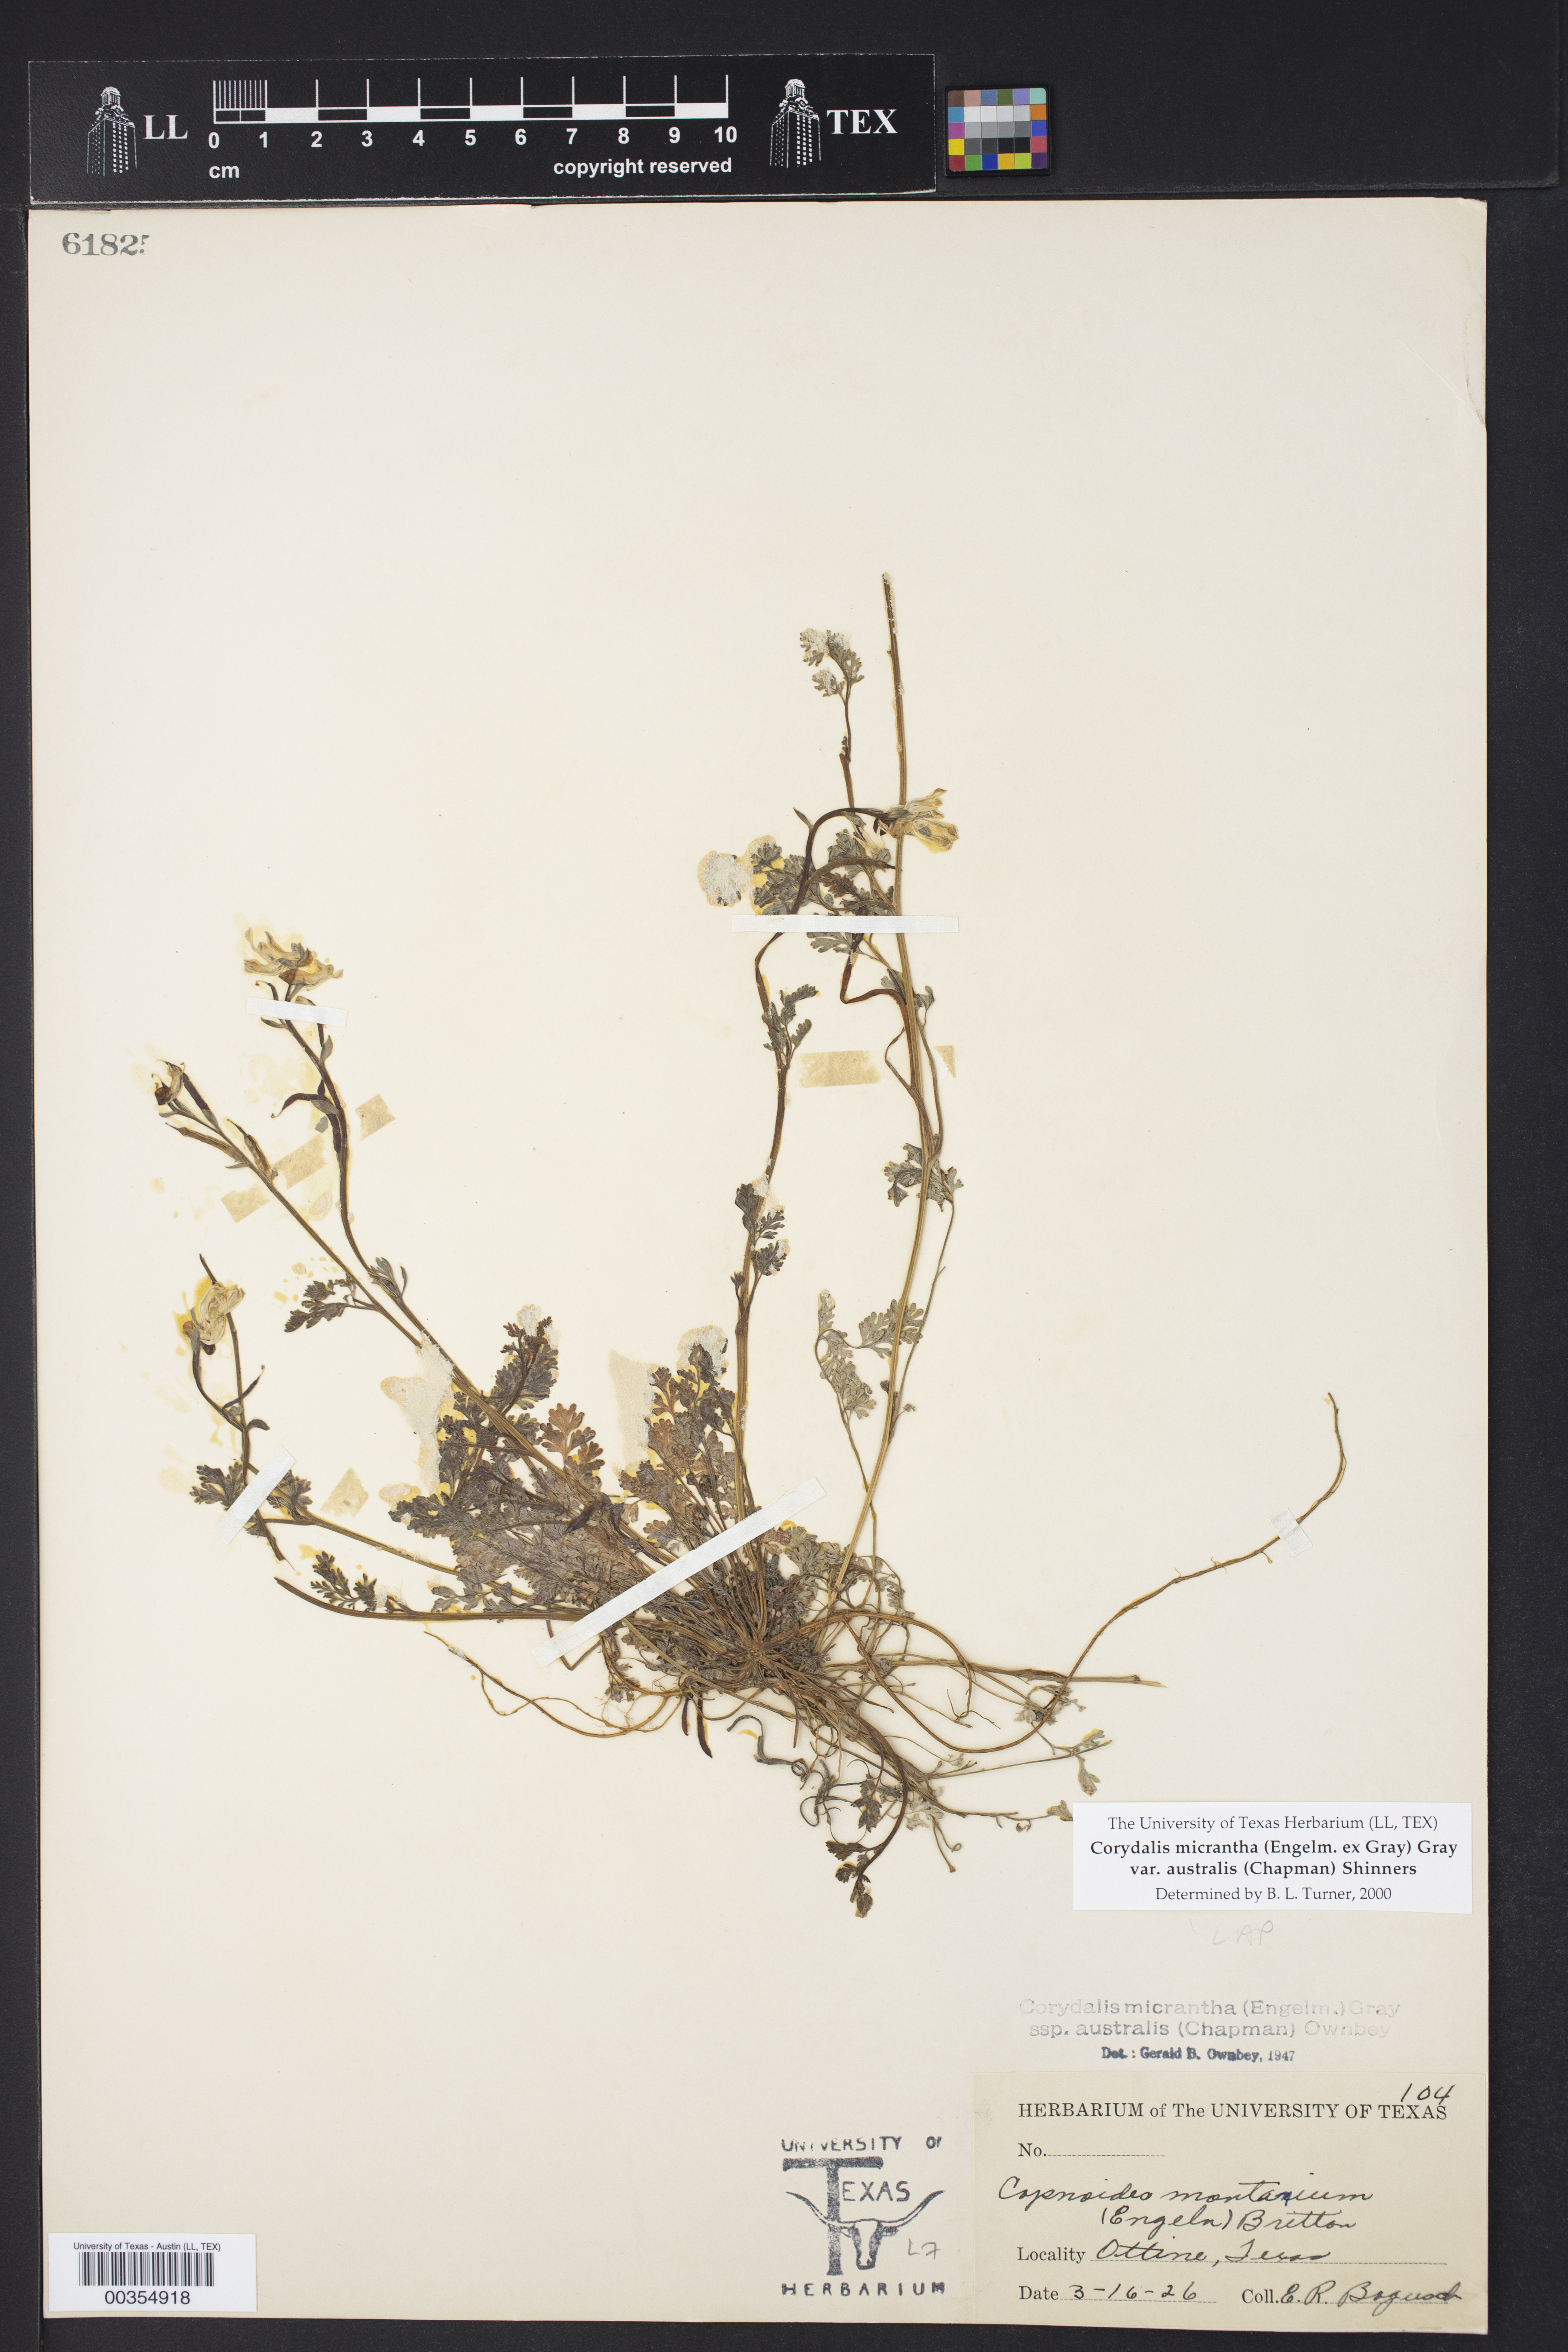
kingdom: Plantae
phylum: Tracheophyta
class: Magnoliopsida
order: Ranunculales
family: Papaveraceae
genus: Corydalis
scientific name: Corydalis micrantha
